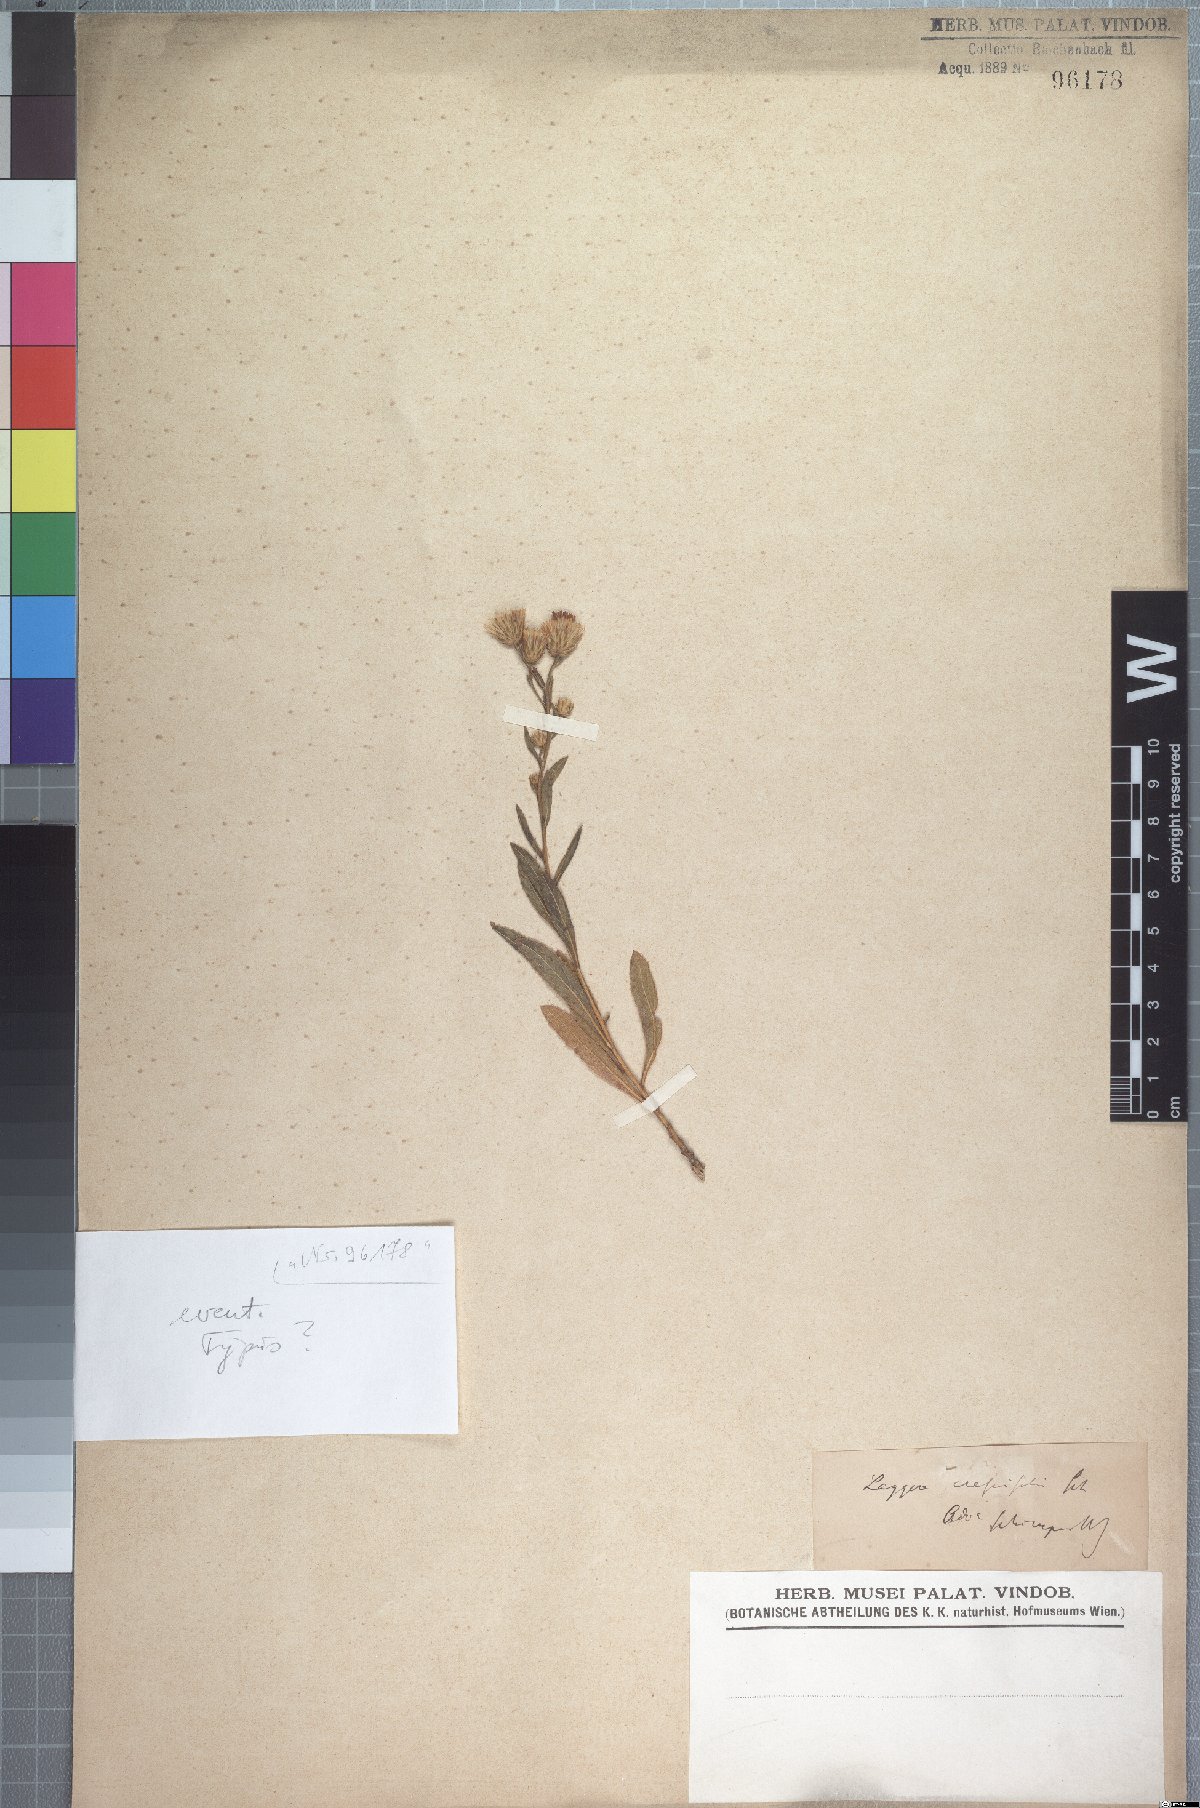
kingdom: Plantae
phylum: Tracheophyta
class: Magnoliopsida
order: Asterales
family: Asteraceae
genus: Laggera
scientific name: Laggera crassifolia
